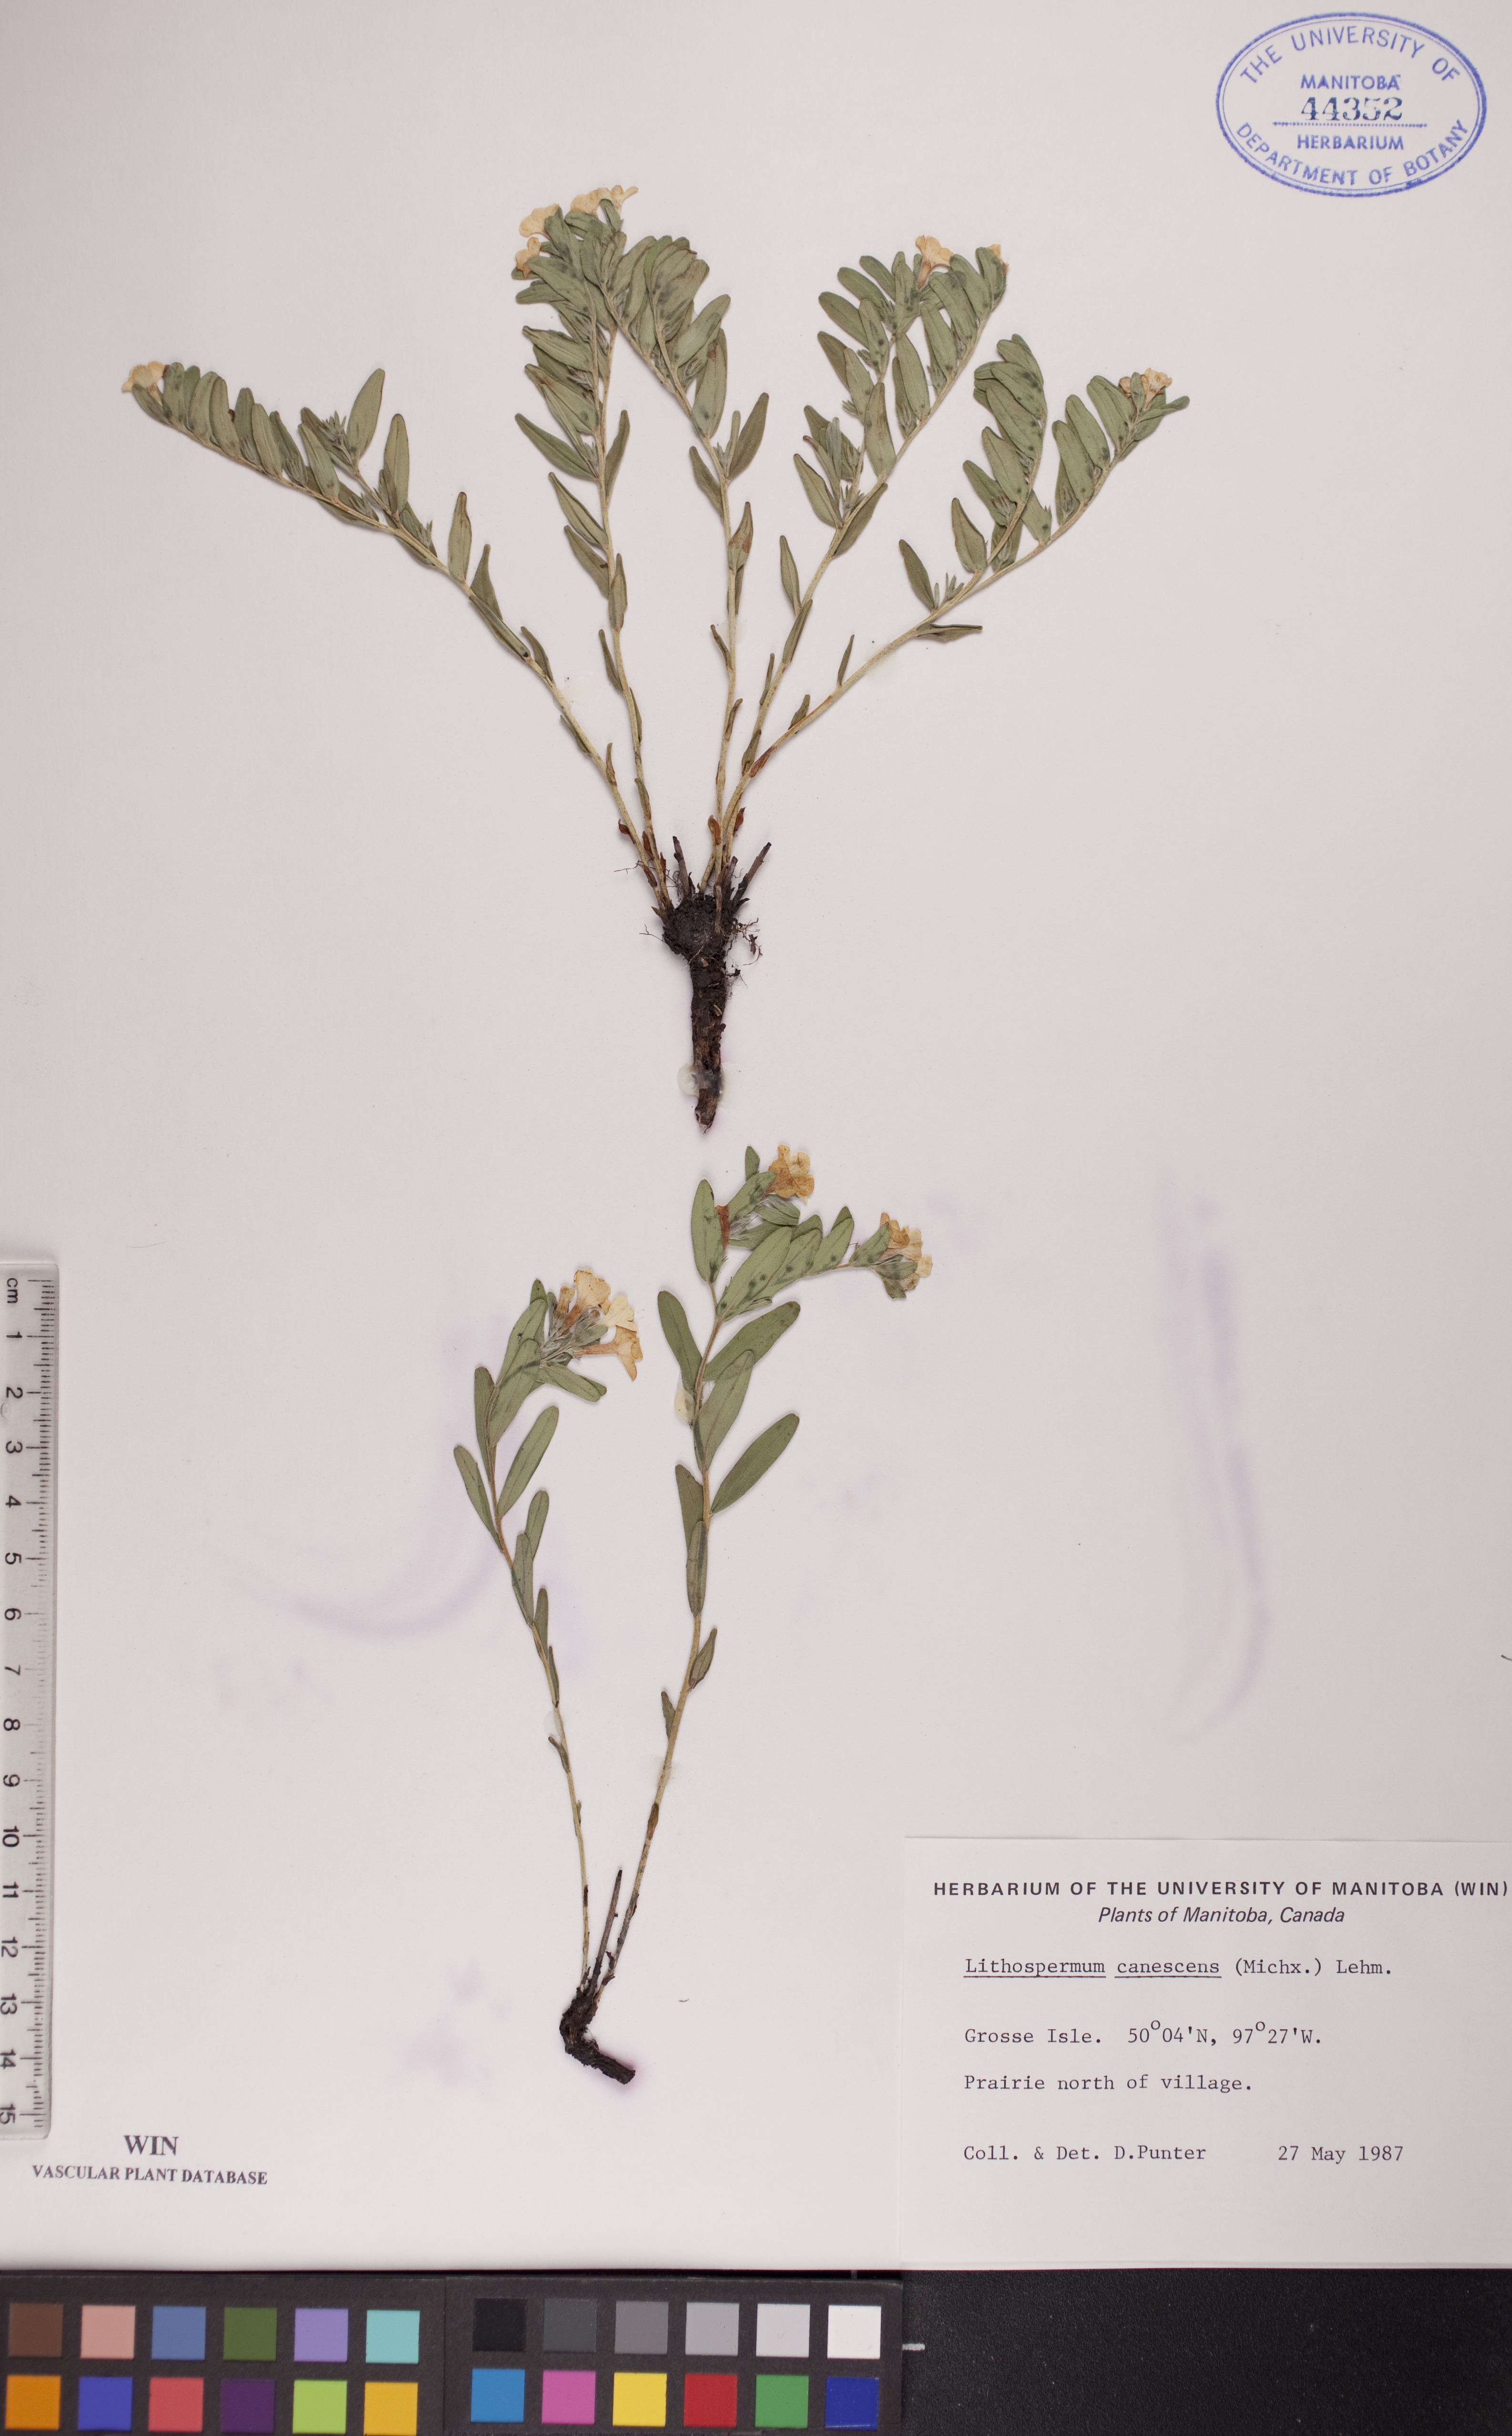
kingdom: Plantae
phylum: Tracheophyta
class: Magnoliopsida
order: Boraginales
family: Boraginaceae
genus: Lithospermum
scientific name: Lithospermum canescens
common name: Hoary puccoon
